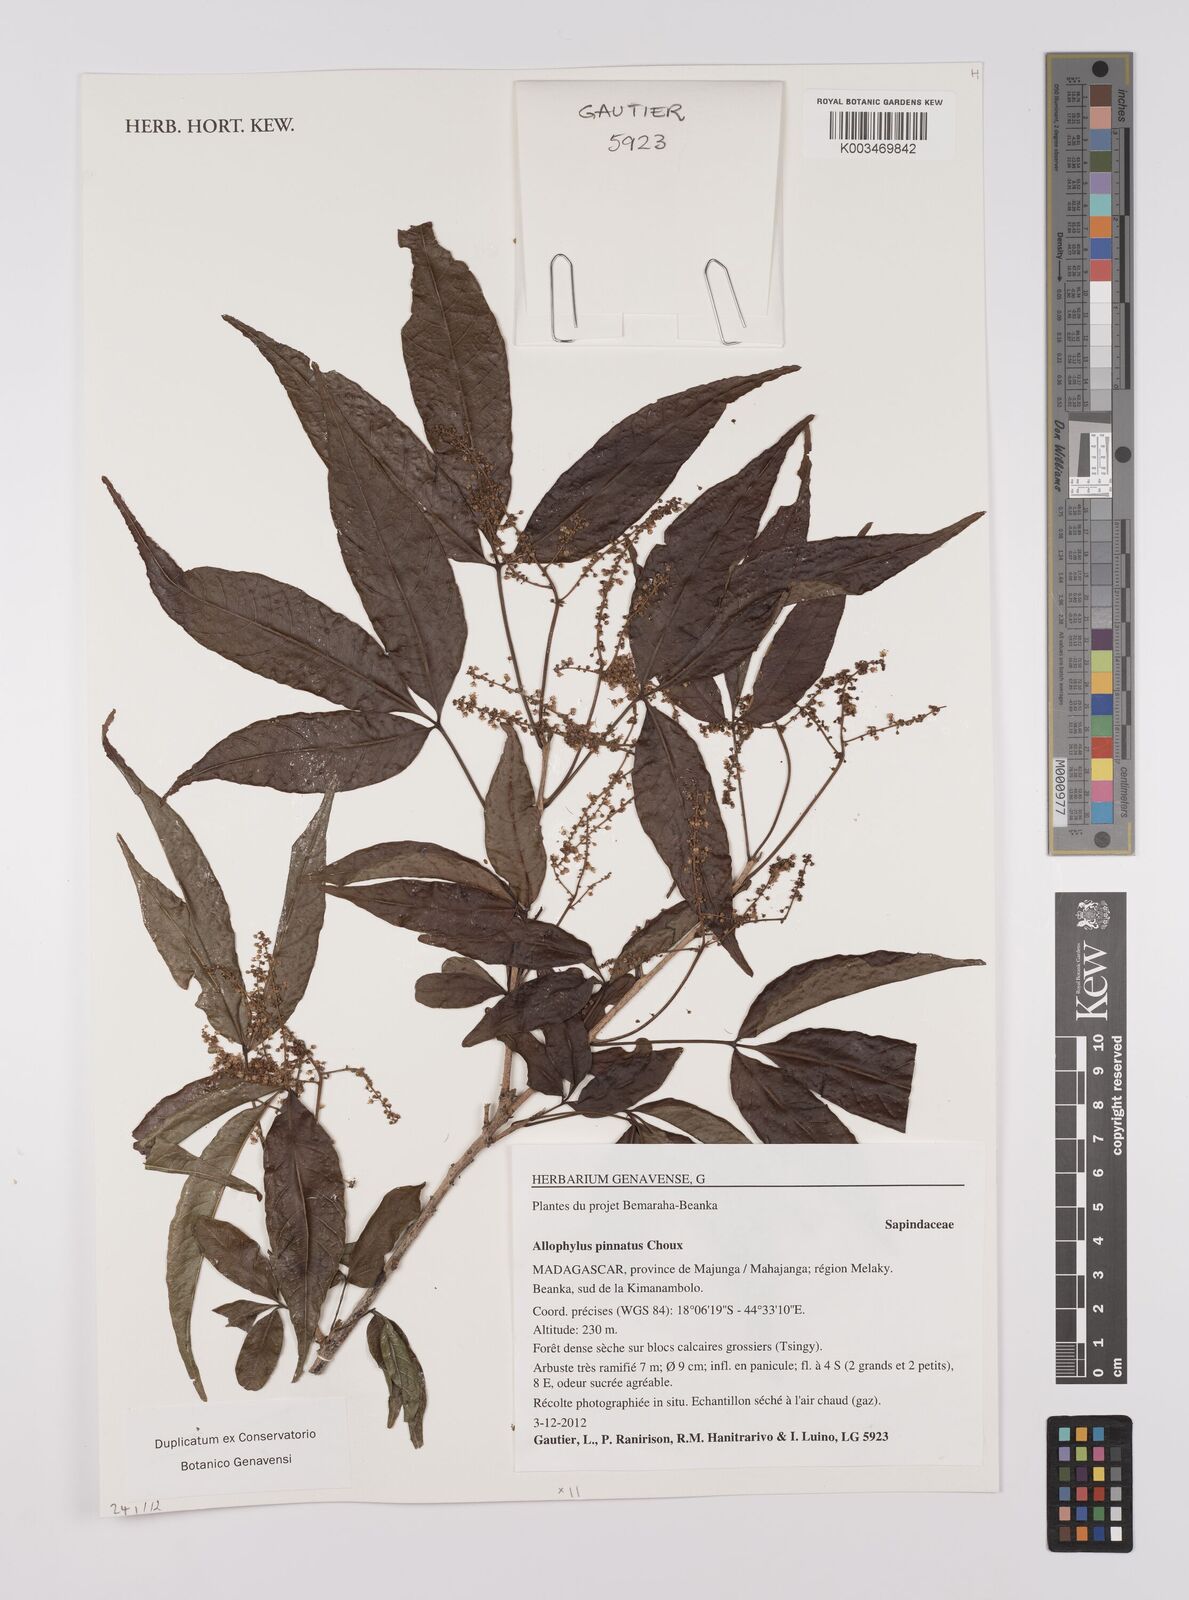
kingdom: Plantae
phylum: Tracheophyta
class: Magnoliopsida
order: Sapindales
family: Sapindaceae
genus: Allophylus
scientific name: Allophylus pinnatus
